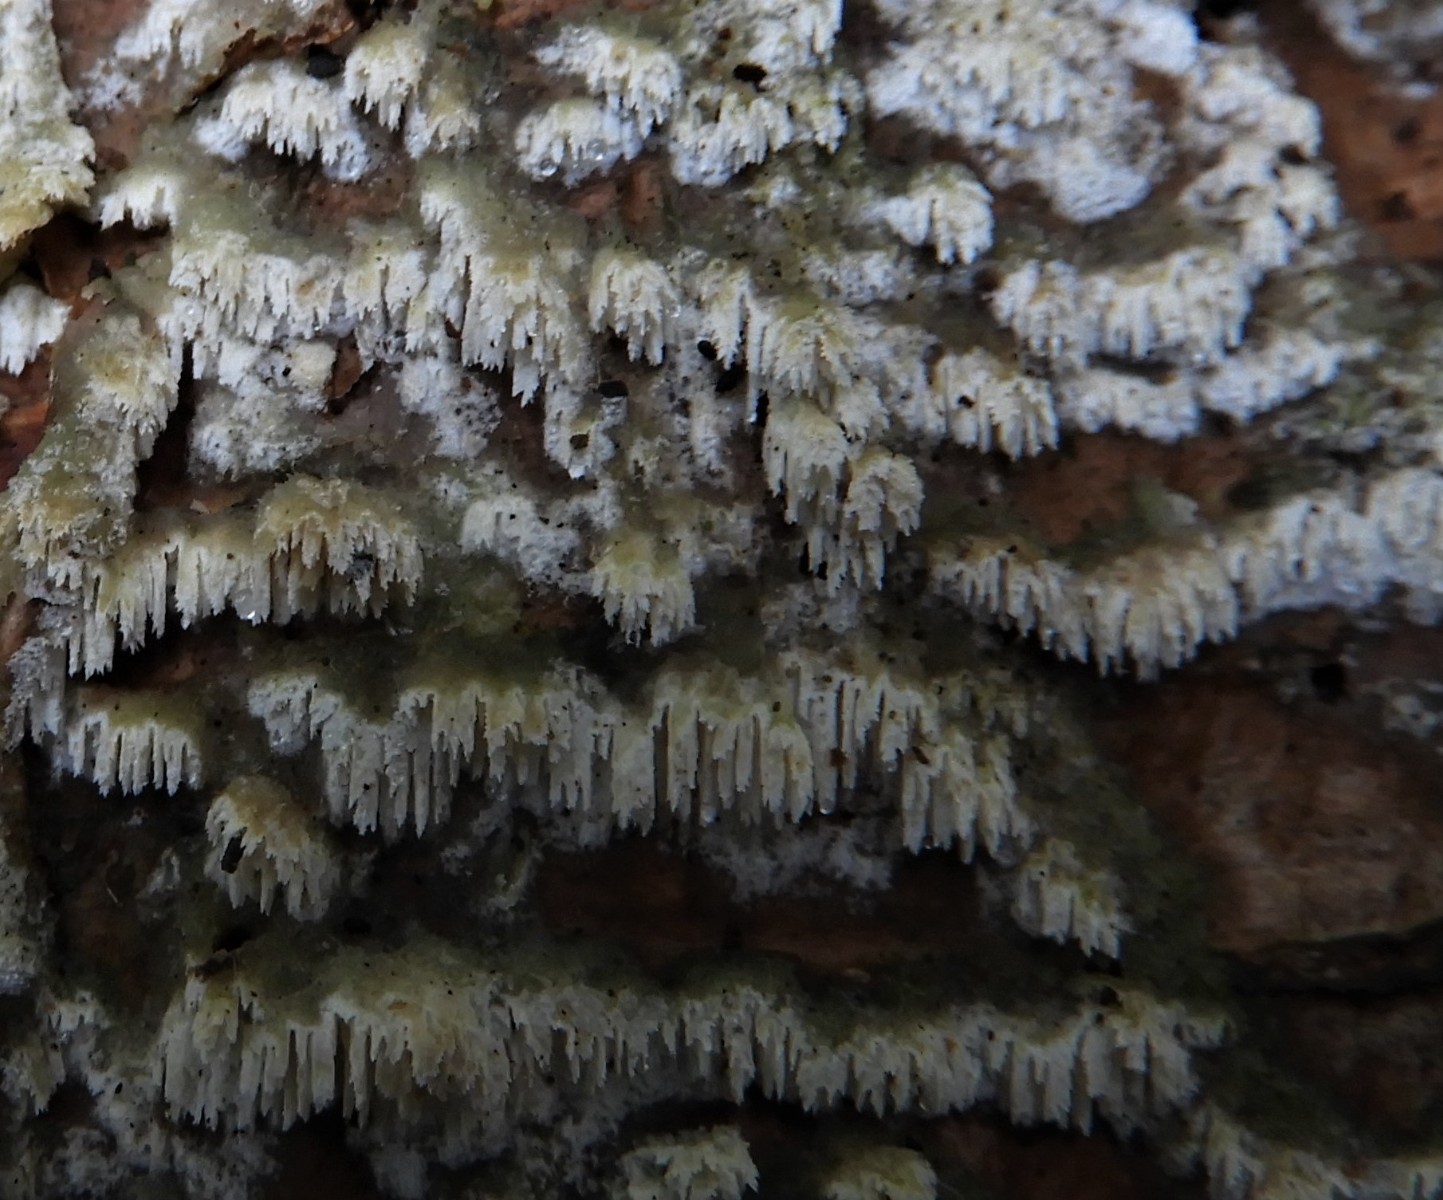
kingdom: Fungi
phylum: Basidiomycota
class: Agaricomycetes
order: Hymenochaetales
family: Schizoporaceae
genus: Schizopora
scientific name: Schizopora paradoxa
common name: hvid tandsvamp
